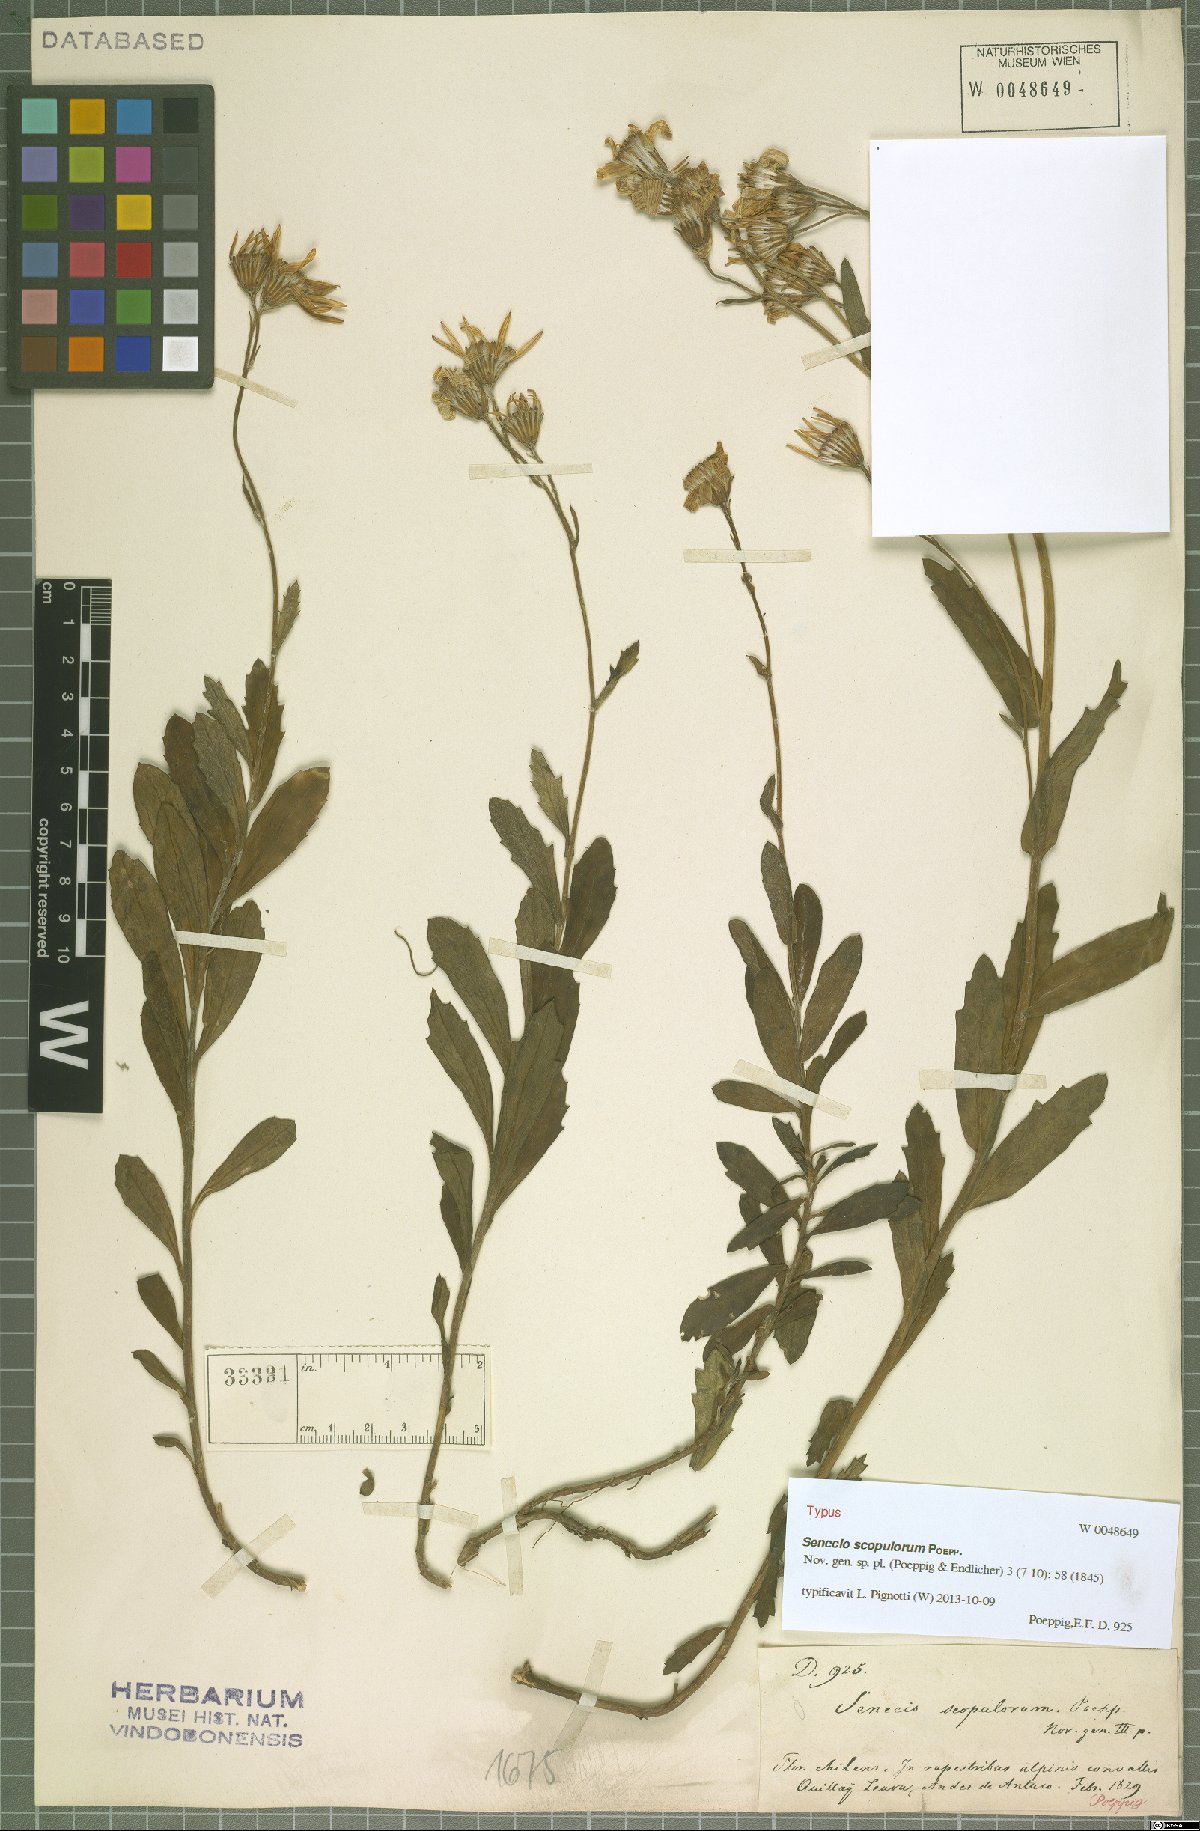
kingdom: Plantae
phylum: Tracheophyta
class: Magnoliopsida
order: Asterales
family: Asteraceae
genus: Senecio
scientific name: Senecio scopulorum
